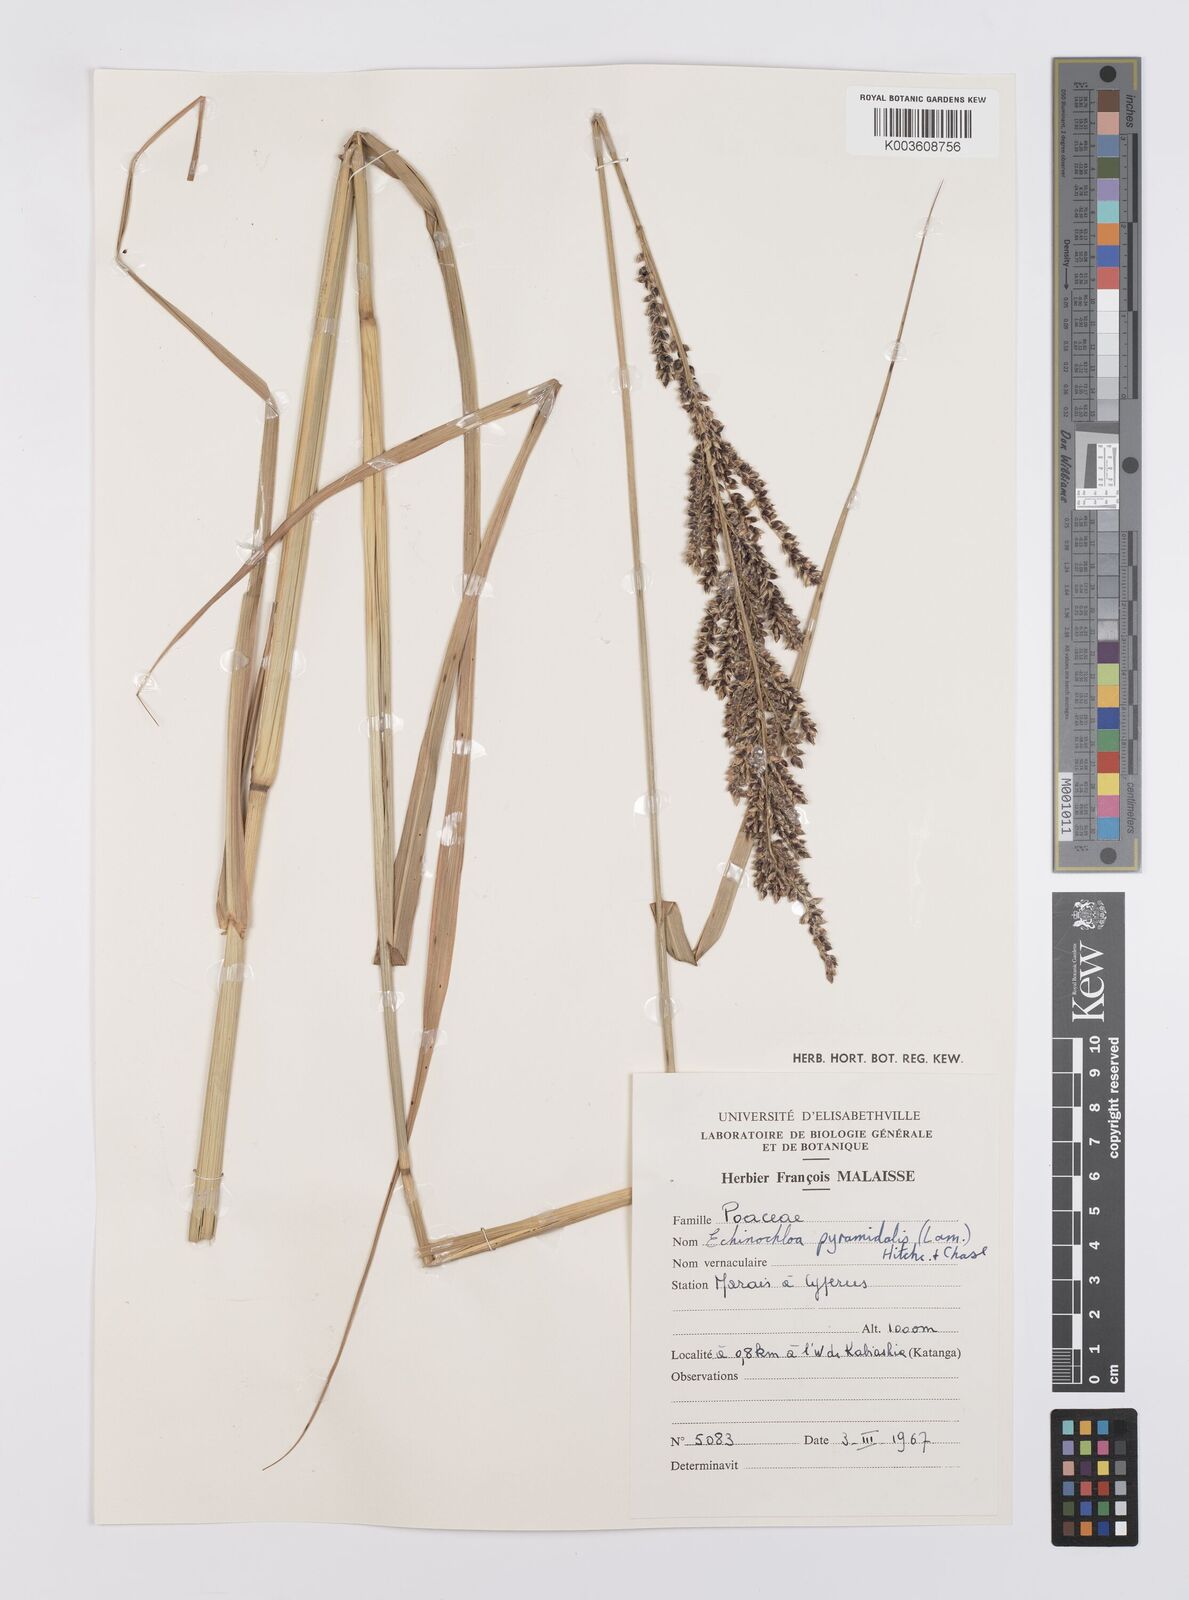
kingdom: Plantae
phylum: Tracheophyta
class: Liliopsida
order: Poales
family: Poaceae
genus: Echinochloa
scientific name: Echinochloa pyramidalis
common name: Antelope grass
